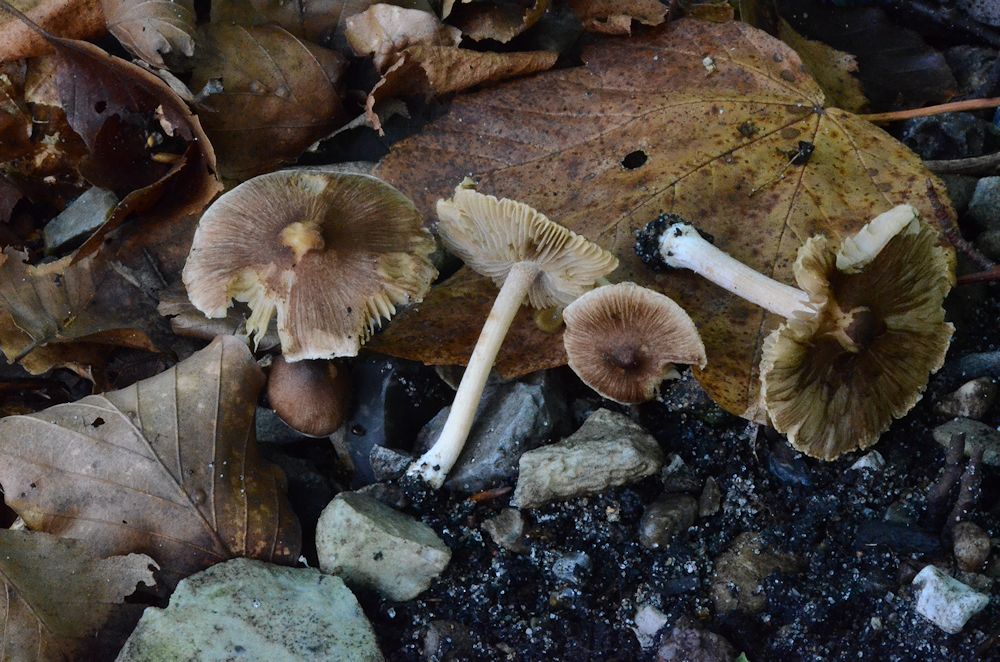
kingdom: Fungi
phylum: Basidiomycota
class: Agaricomycetes
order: Agaricales
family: Inocybaceae
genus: Inocybe
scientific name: Inocybe
